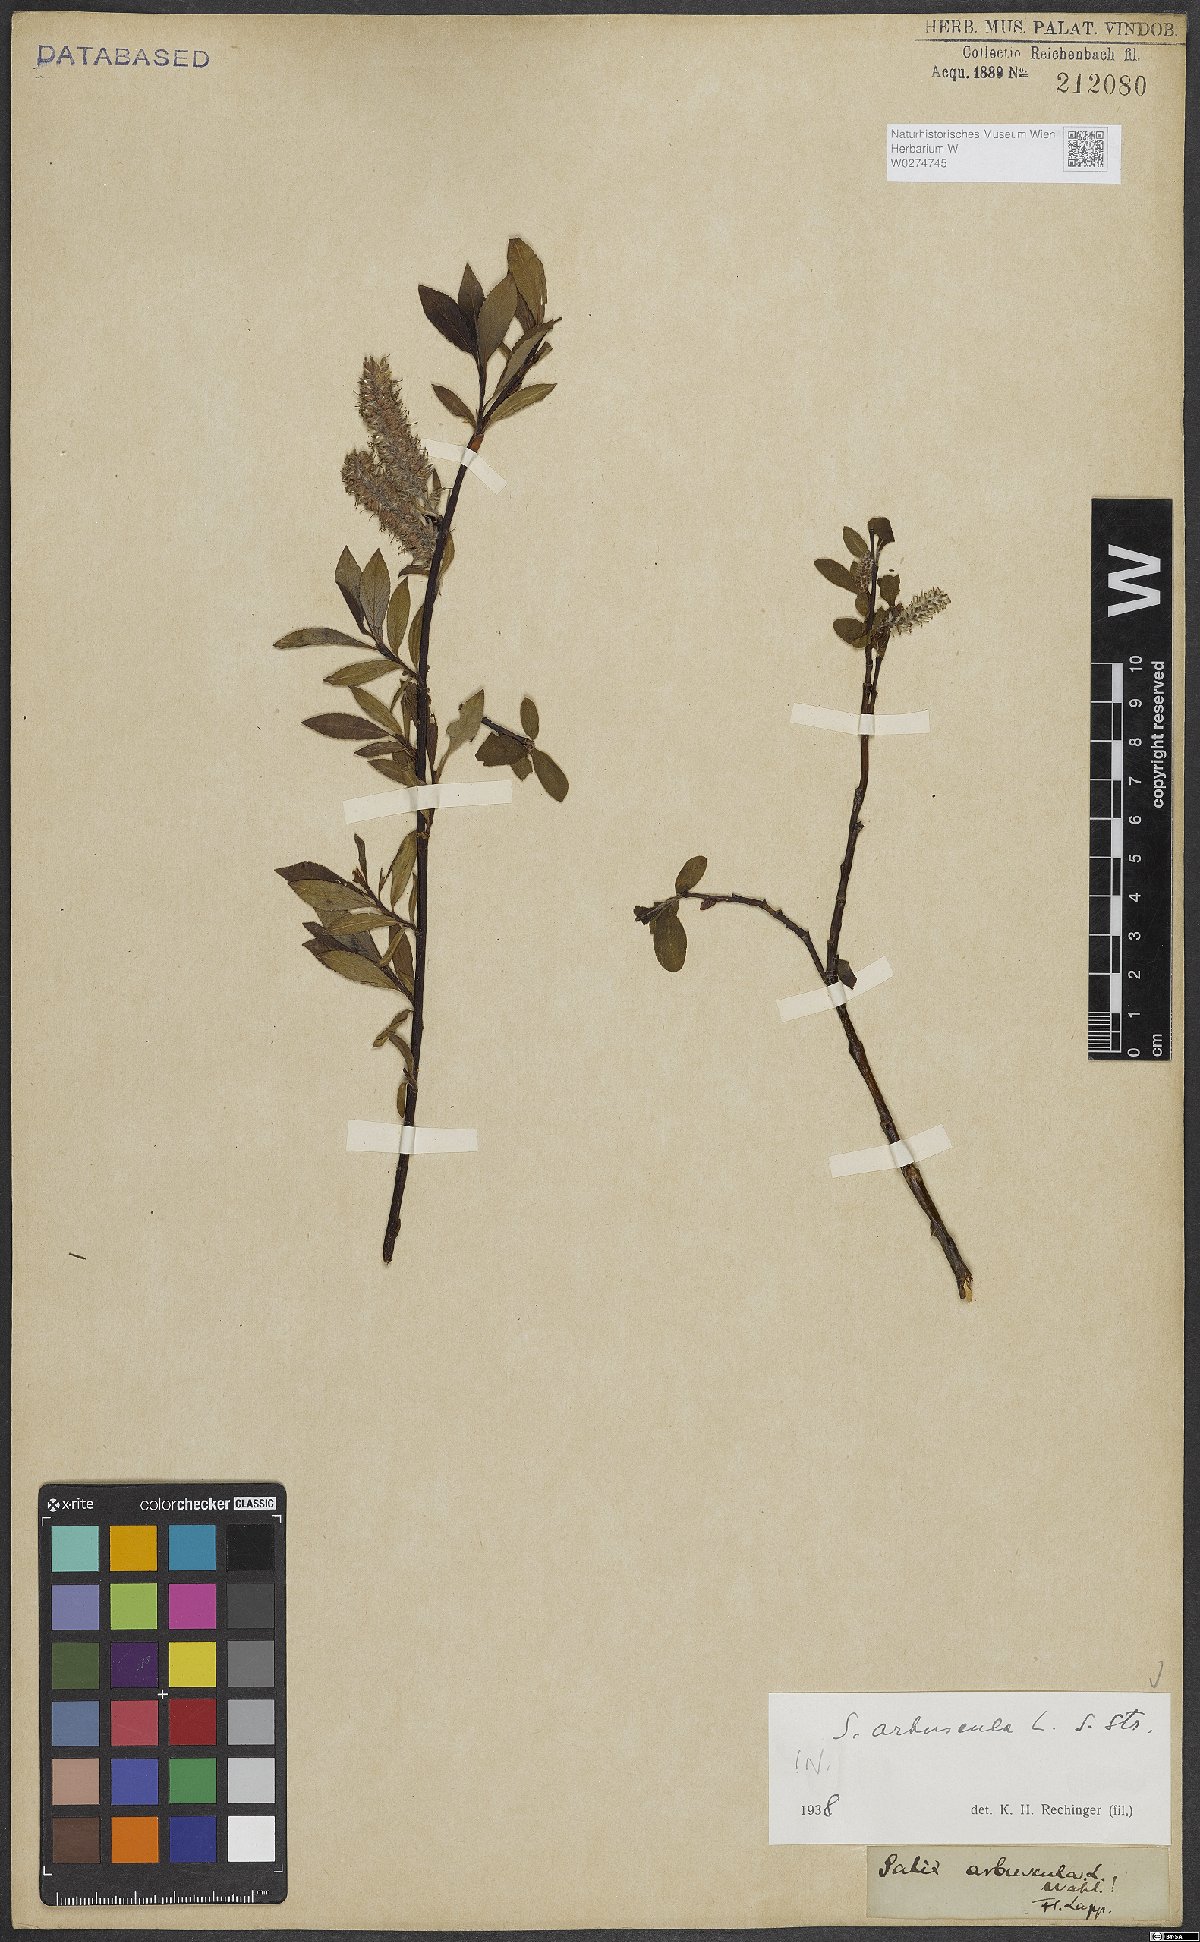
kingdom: Plantae
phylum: Tracheophyta
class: Magnoliopsida
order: Malpighiales
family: Salicaceae
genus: Salix
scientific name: Salix arbuscula
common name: Mountain willow
